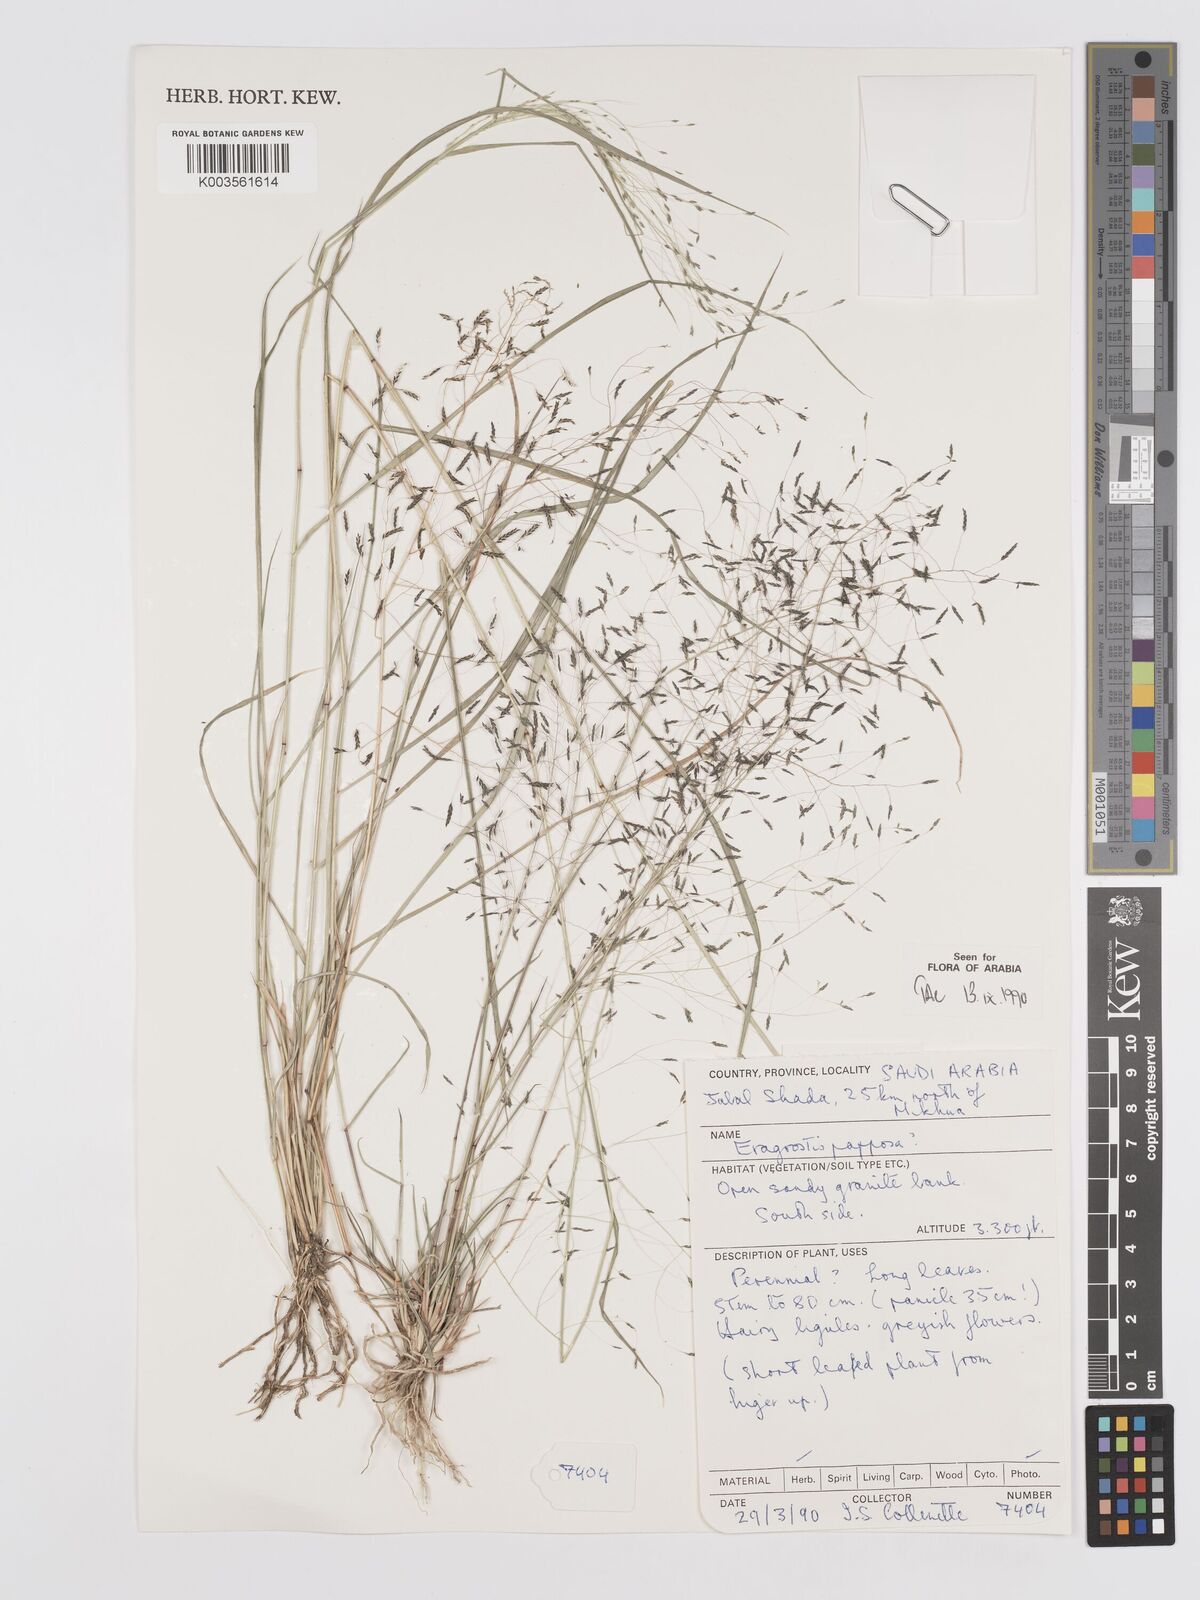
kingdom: Plantae
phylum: Tracheophyta
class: Liliopsida
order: Poales
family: Poaceae
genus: Eragrostis
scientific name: Eragrostis papposa
